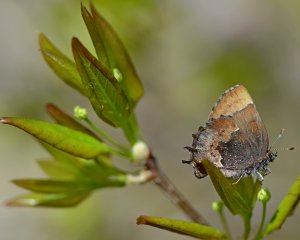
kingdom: Animalia
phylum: Arthropoda
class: Insecta
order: Lepidoptera
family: Lycaenidae
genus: Incisalia
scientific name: Incisalia henrici
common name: Henry's Elfin
